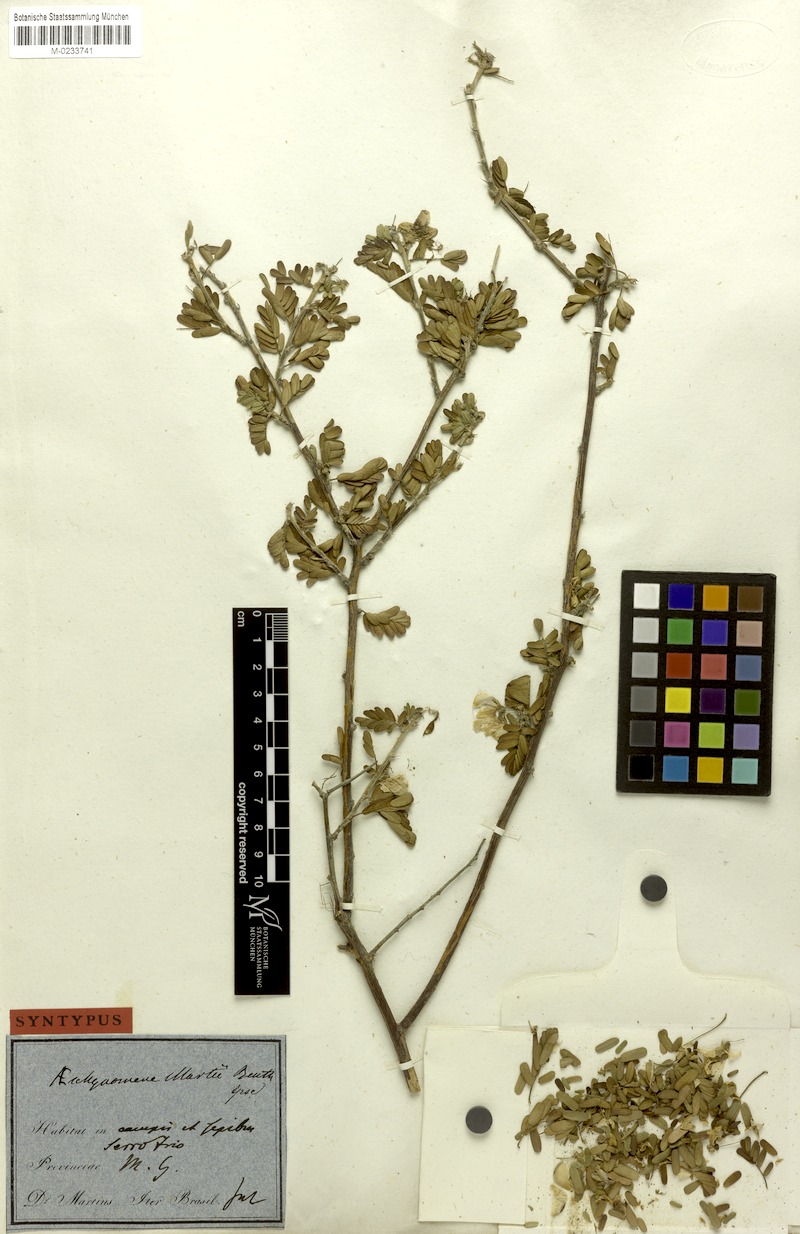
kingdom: Plantae
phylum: Tracheophyta
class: Magnoliopsida
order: Fabales
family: Fabaceae
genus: Ctenodon
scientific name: Ctenodon martii
